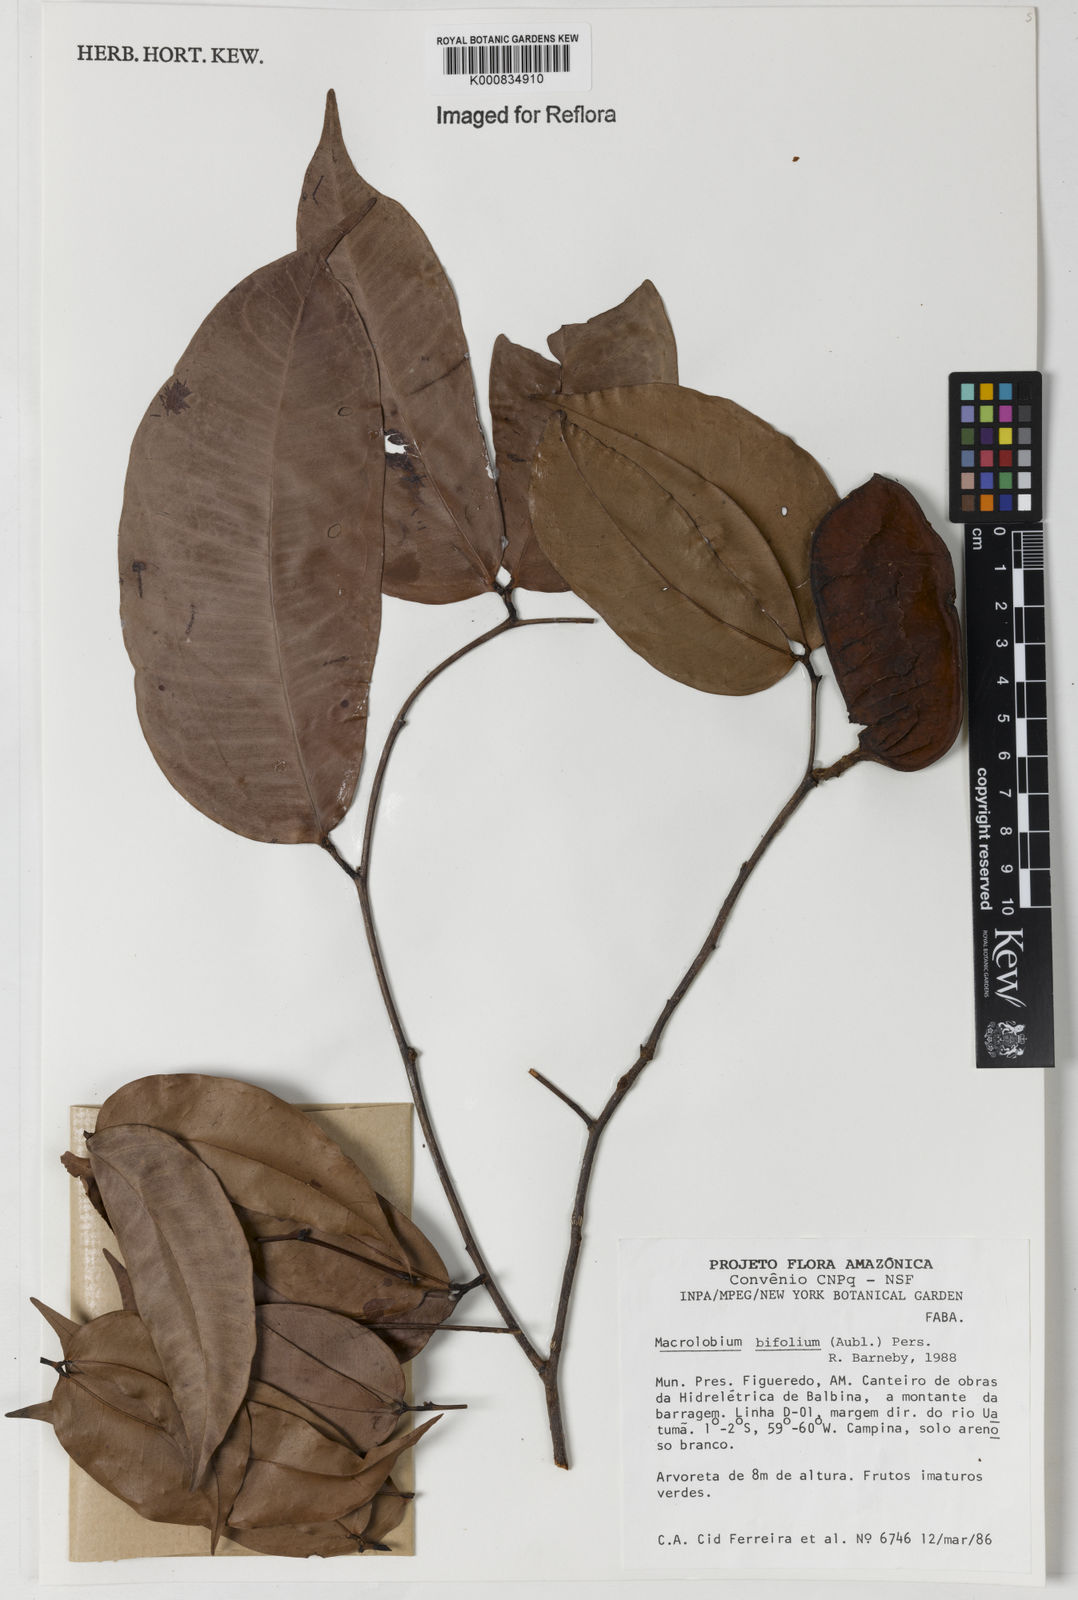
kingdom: Plantae
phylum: Tracheophyta
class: Magnoliopsida
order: Fabales
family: Fabaceae
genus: Macrolobium
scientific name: Macrolobium bifolium
